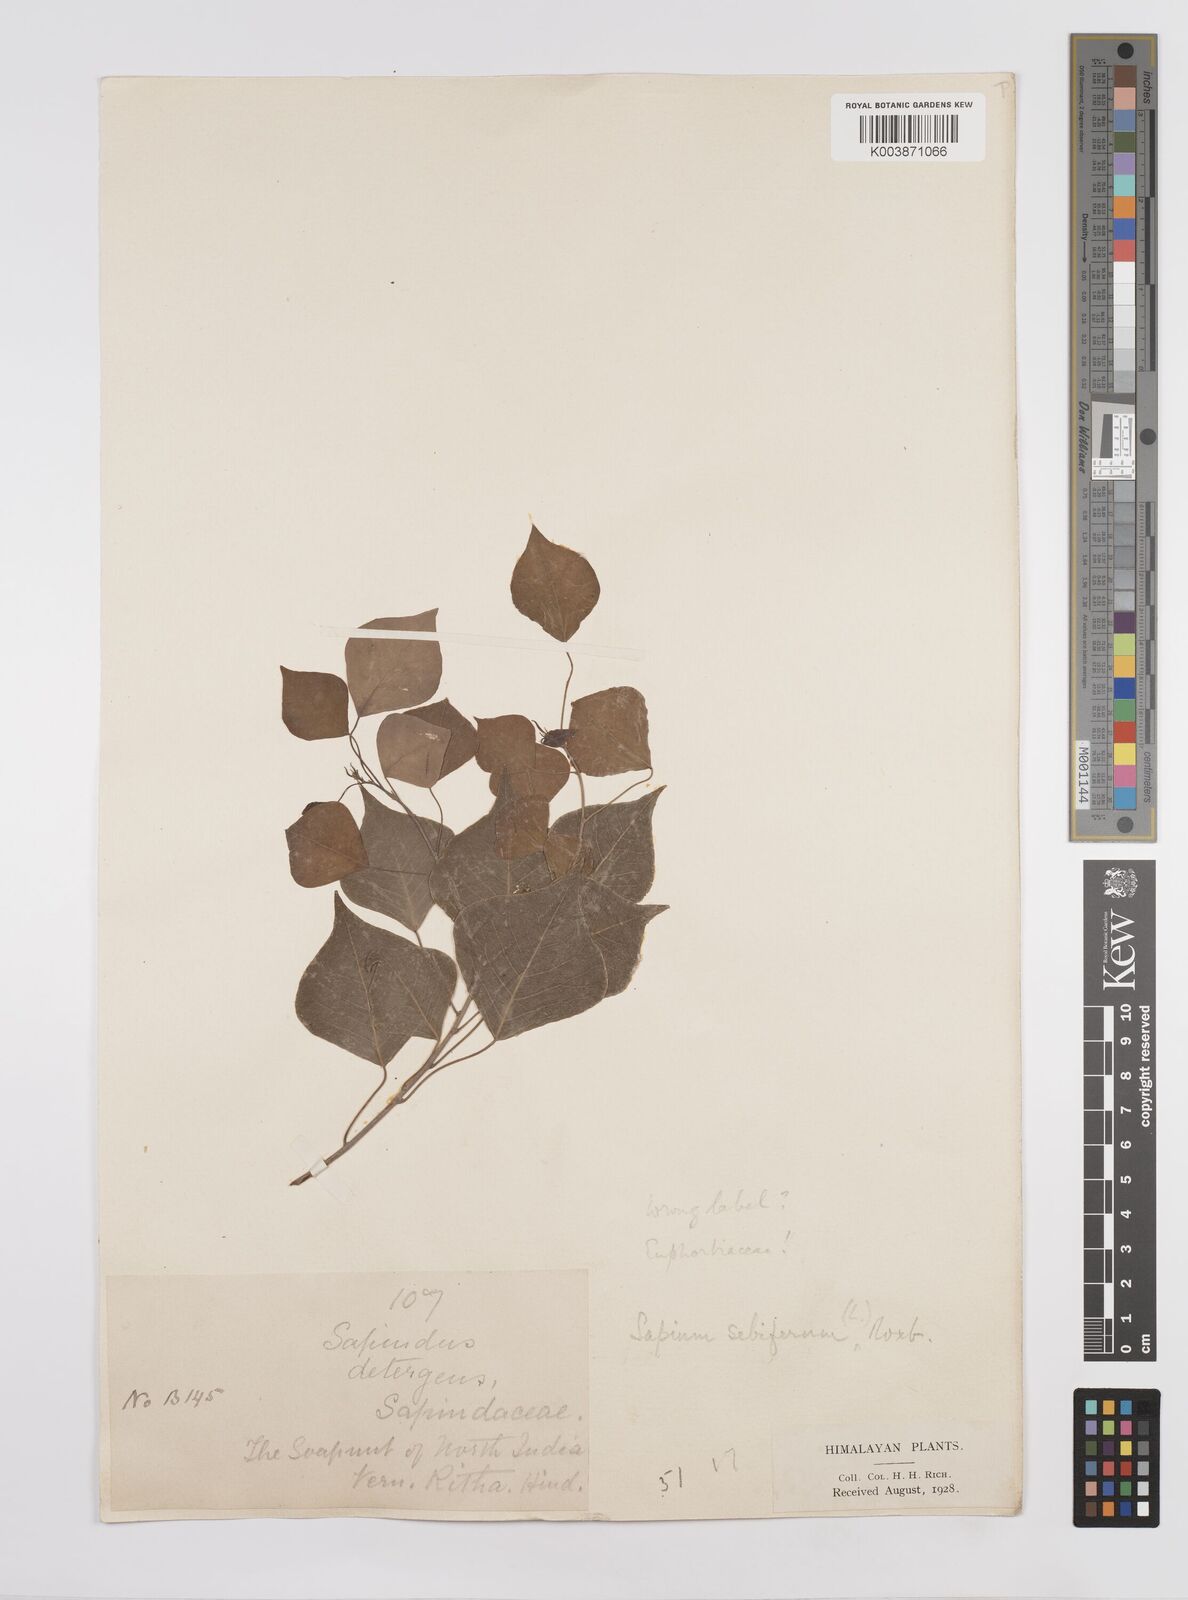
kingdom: Plantae
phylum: Tracheophyta
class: Magnoliopsida
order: Malpighiales
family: Euphorbiaceae
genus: Triadica
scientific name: Triadica sebifera
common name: Chinese tallow
